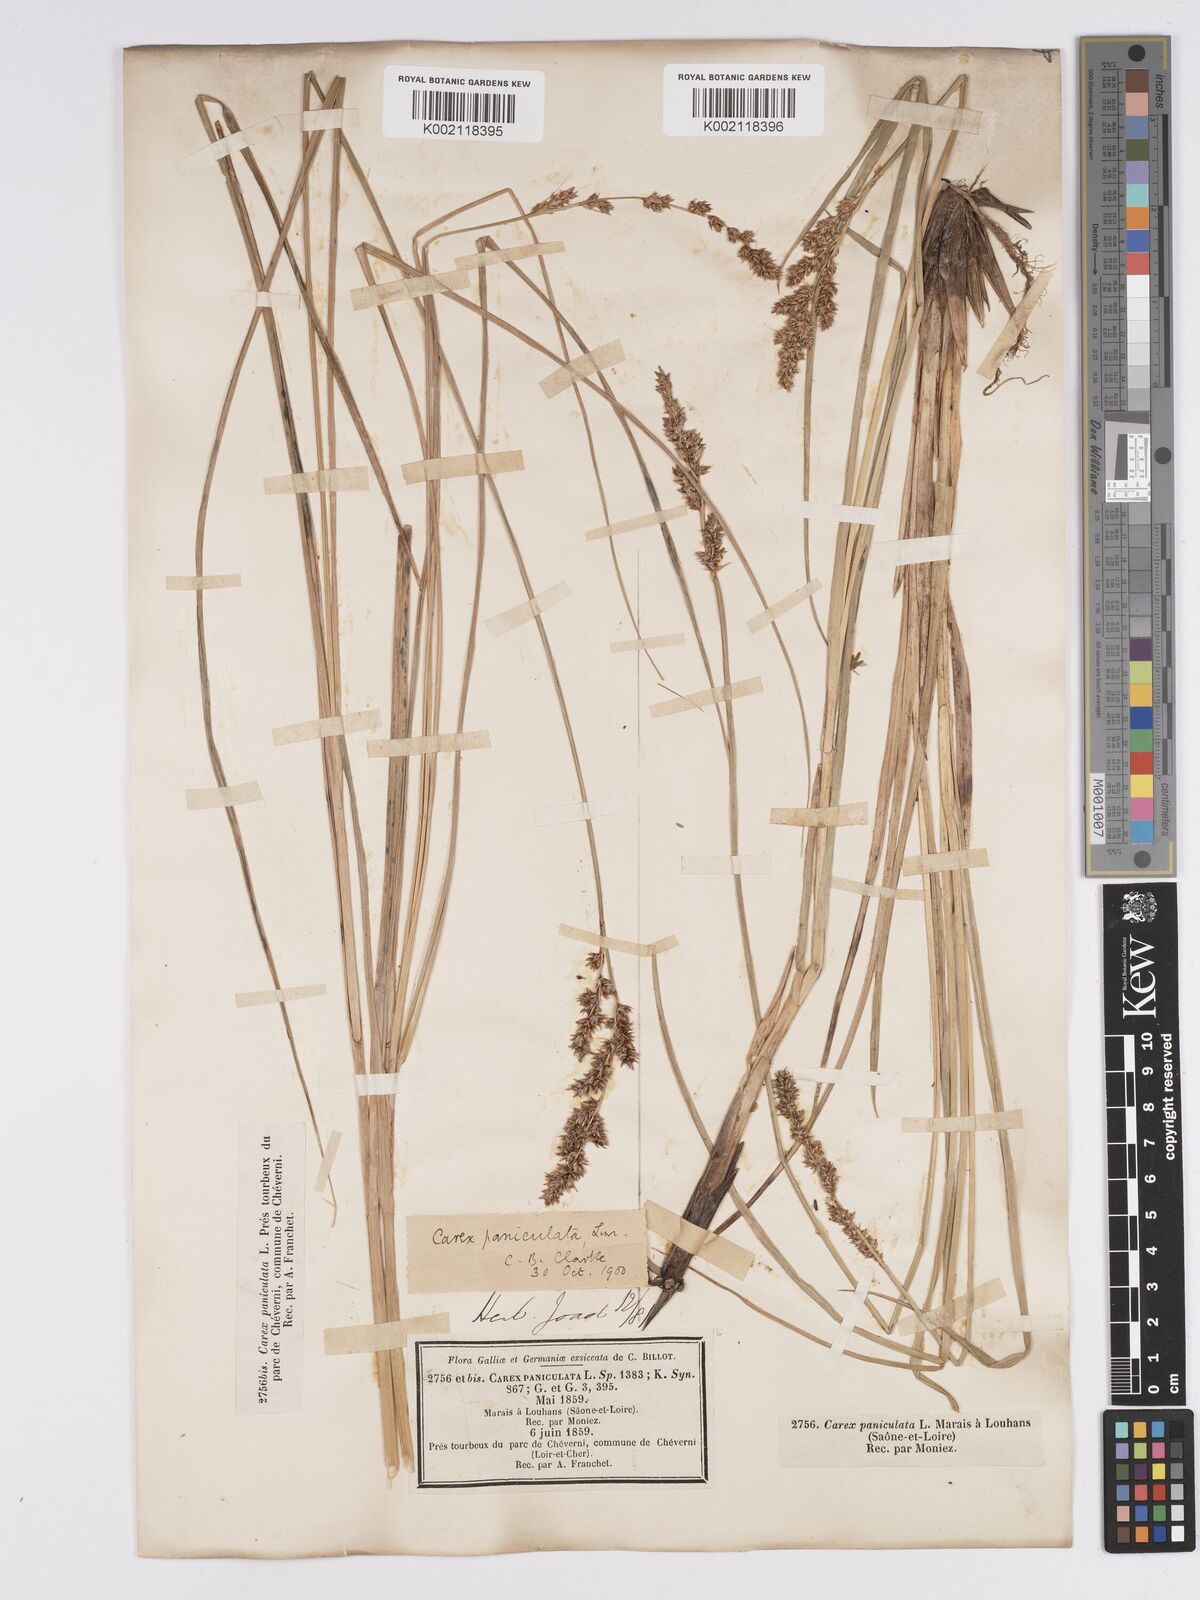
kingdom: Plantae
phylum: Tracheophyta
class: Liliopsida
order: Poales
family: Cyperaceae
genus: Carex
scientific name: Carex paniculata
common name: Greater tussock-sedge
